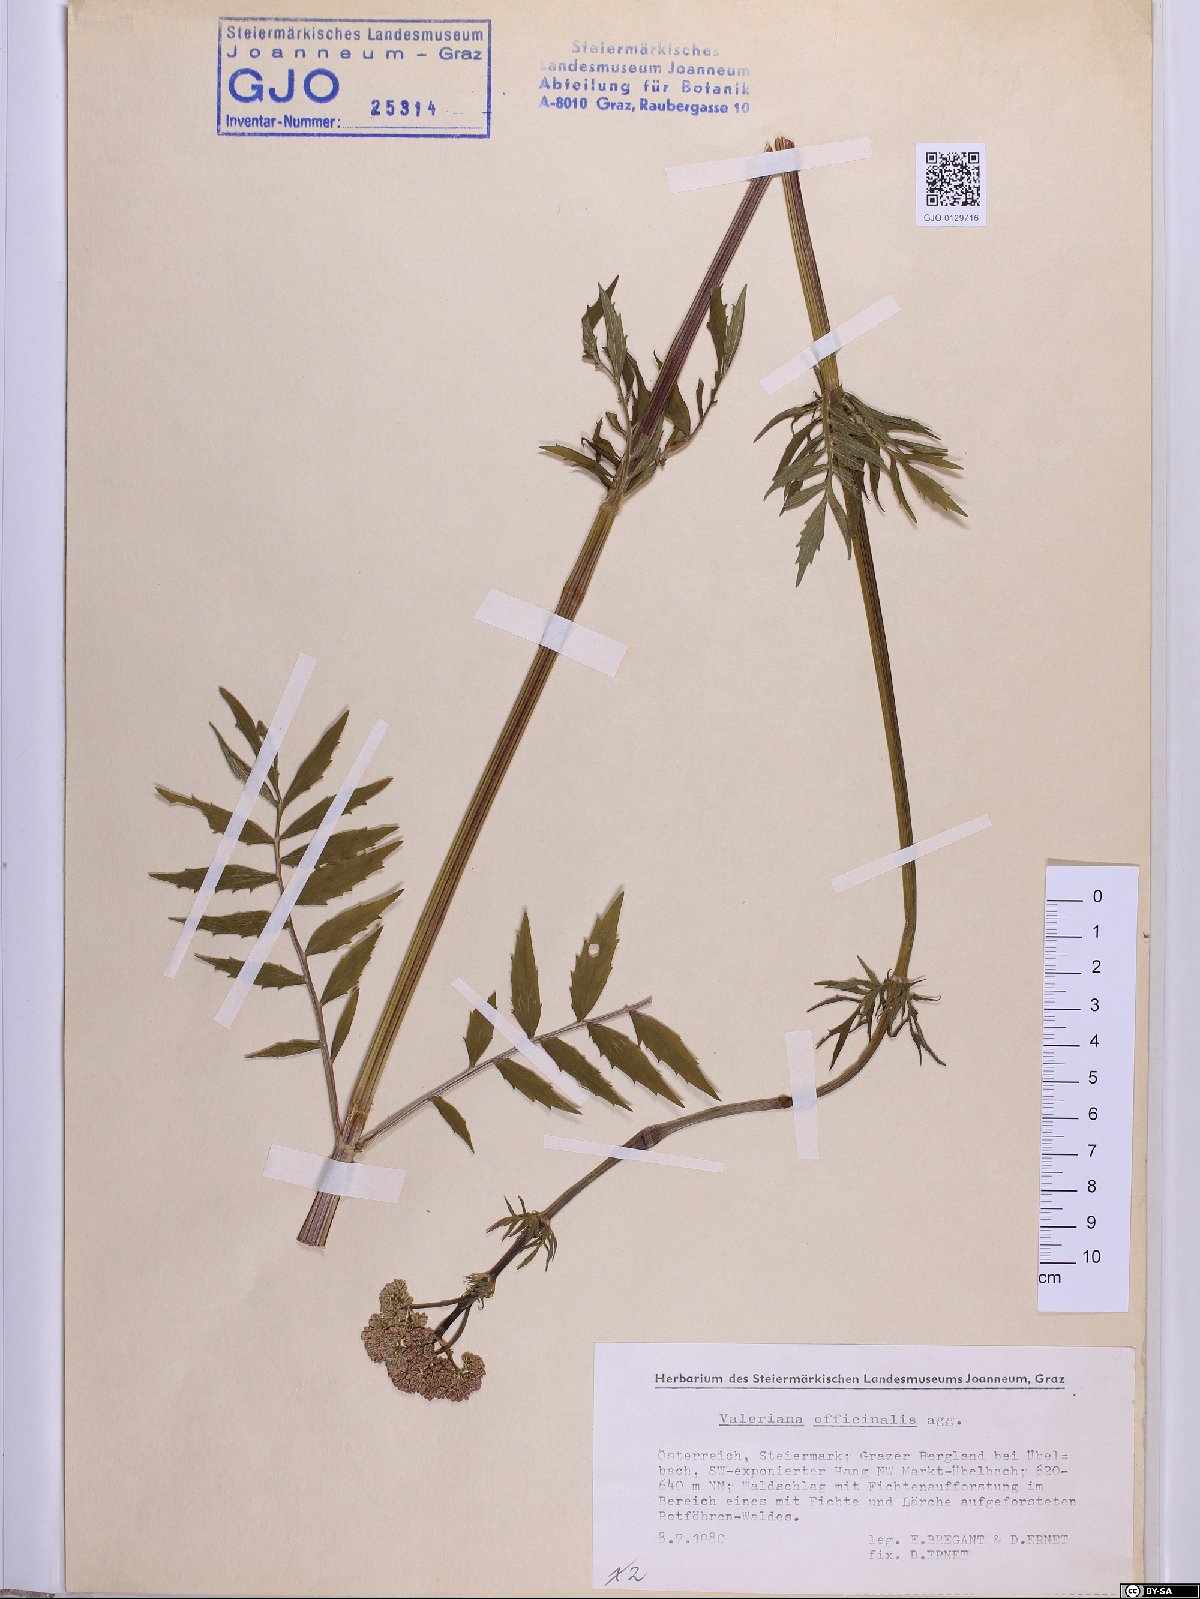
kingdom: Plantae
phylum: Tracheophyta
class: Magnoliopsida
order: Dipsacales
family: Caprifoliaceae
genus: Valeriana
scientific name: Valeriana officinalis
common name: Common valerian
